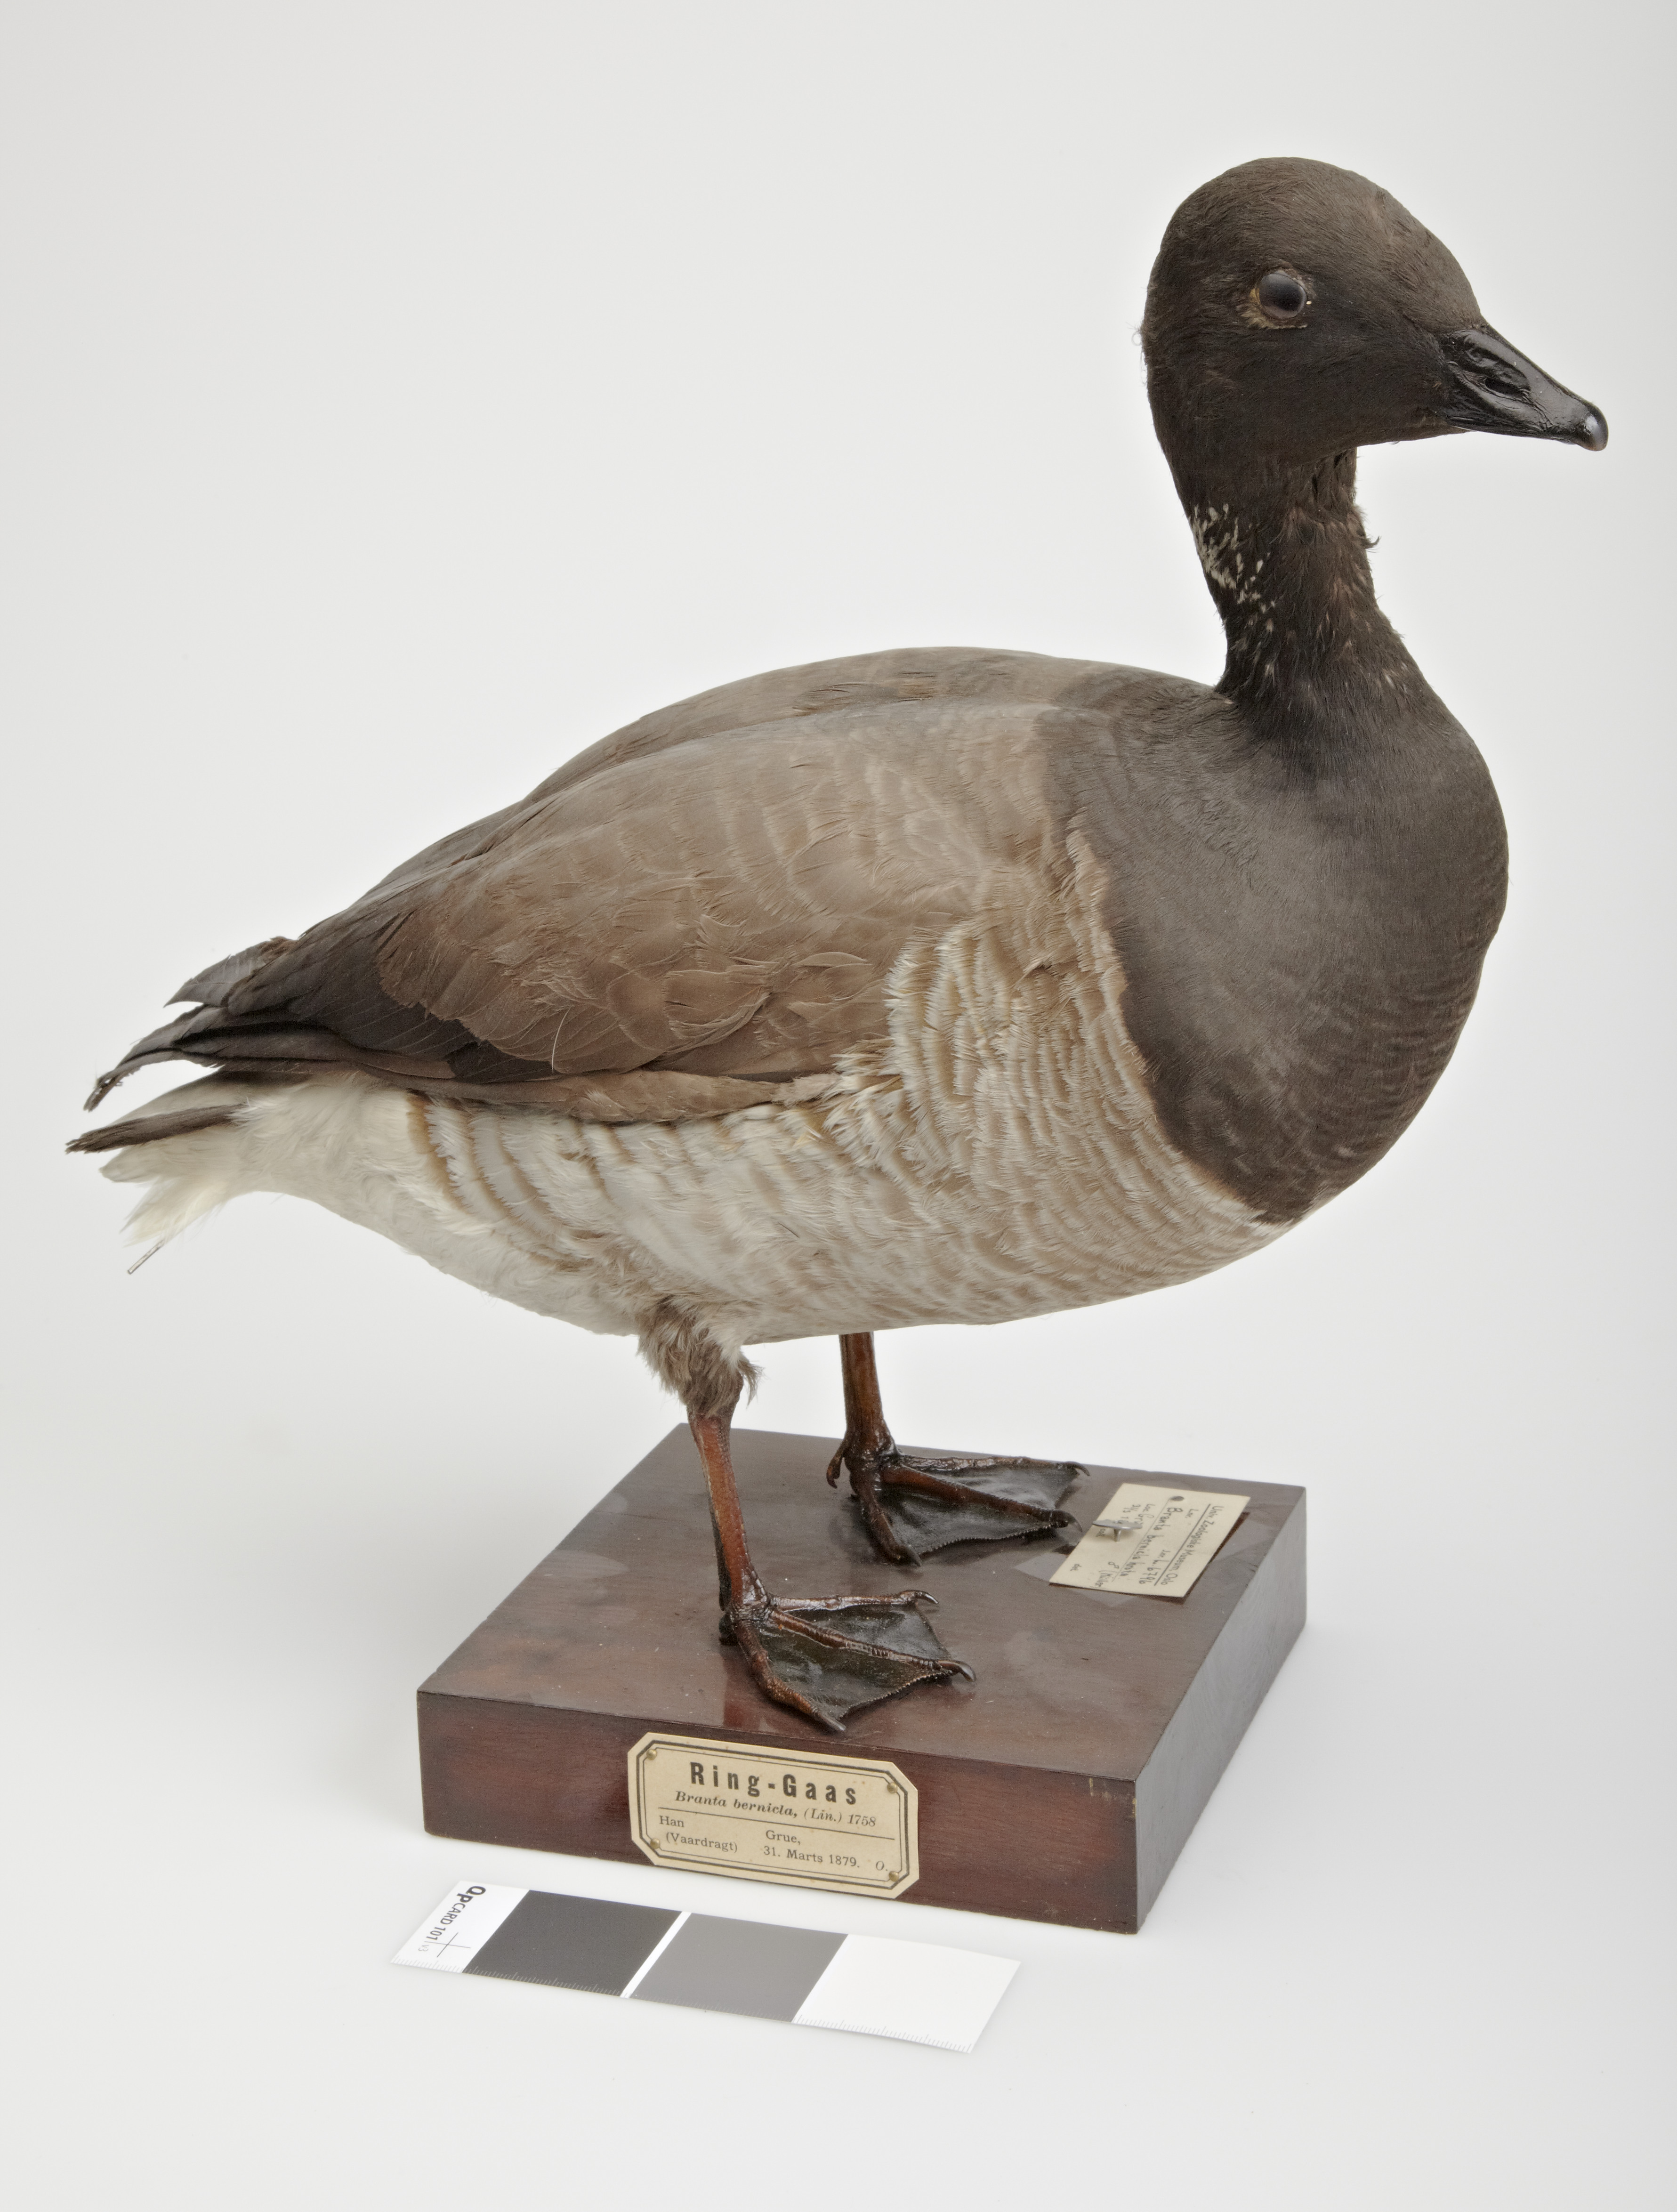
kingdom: Animalia
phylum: Chordata
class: Aves
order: Anseriformes
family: Anatidae
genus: Branta
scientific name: Branta bernicla
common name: Brant goose
